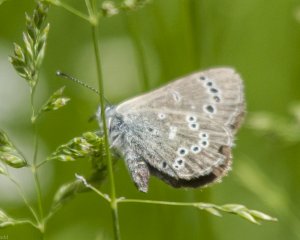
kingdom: Animalia
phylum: Arthropoda
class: Insecta
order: Lepidoptera
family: Lycaenidae
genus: Glaucopsyche
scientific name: Glaucopsyche lygdamus
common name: Silvery Blue
